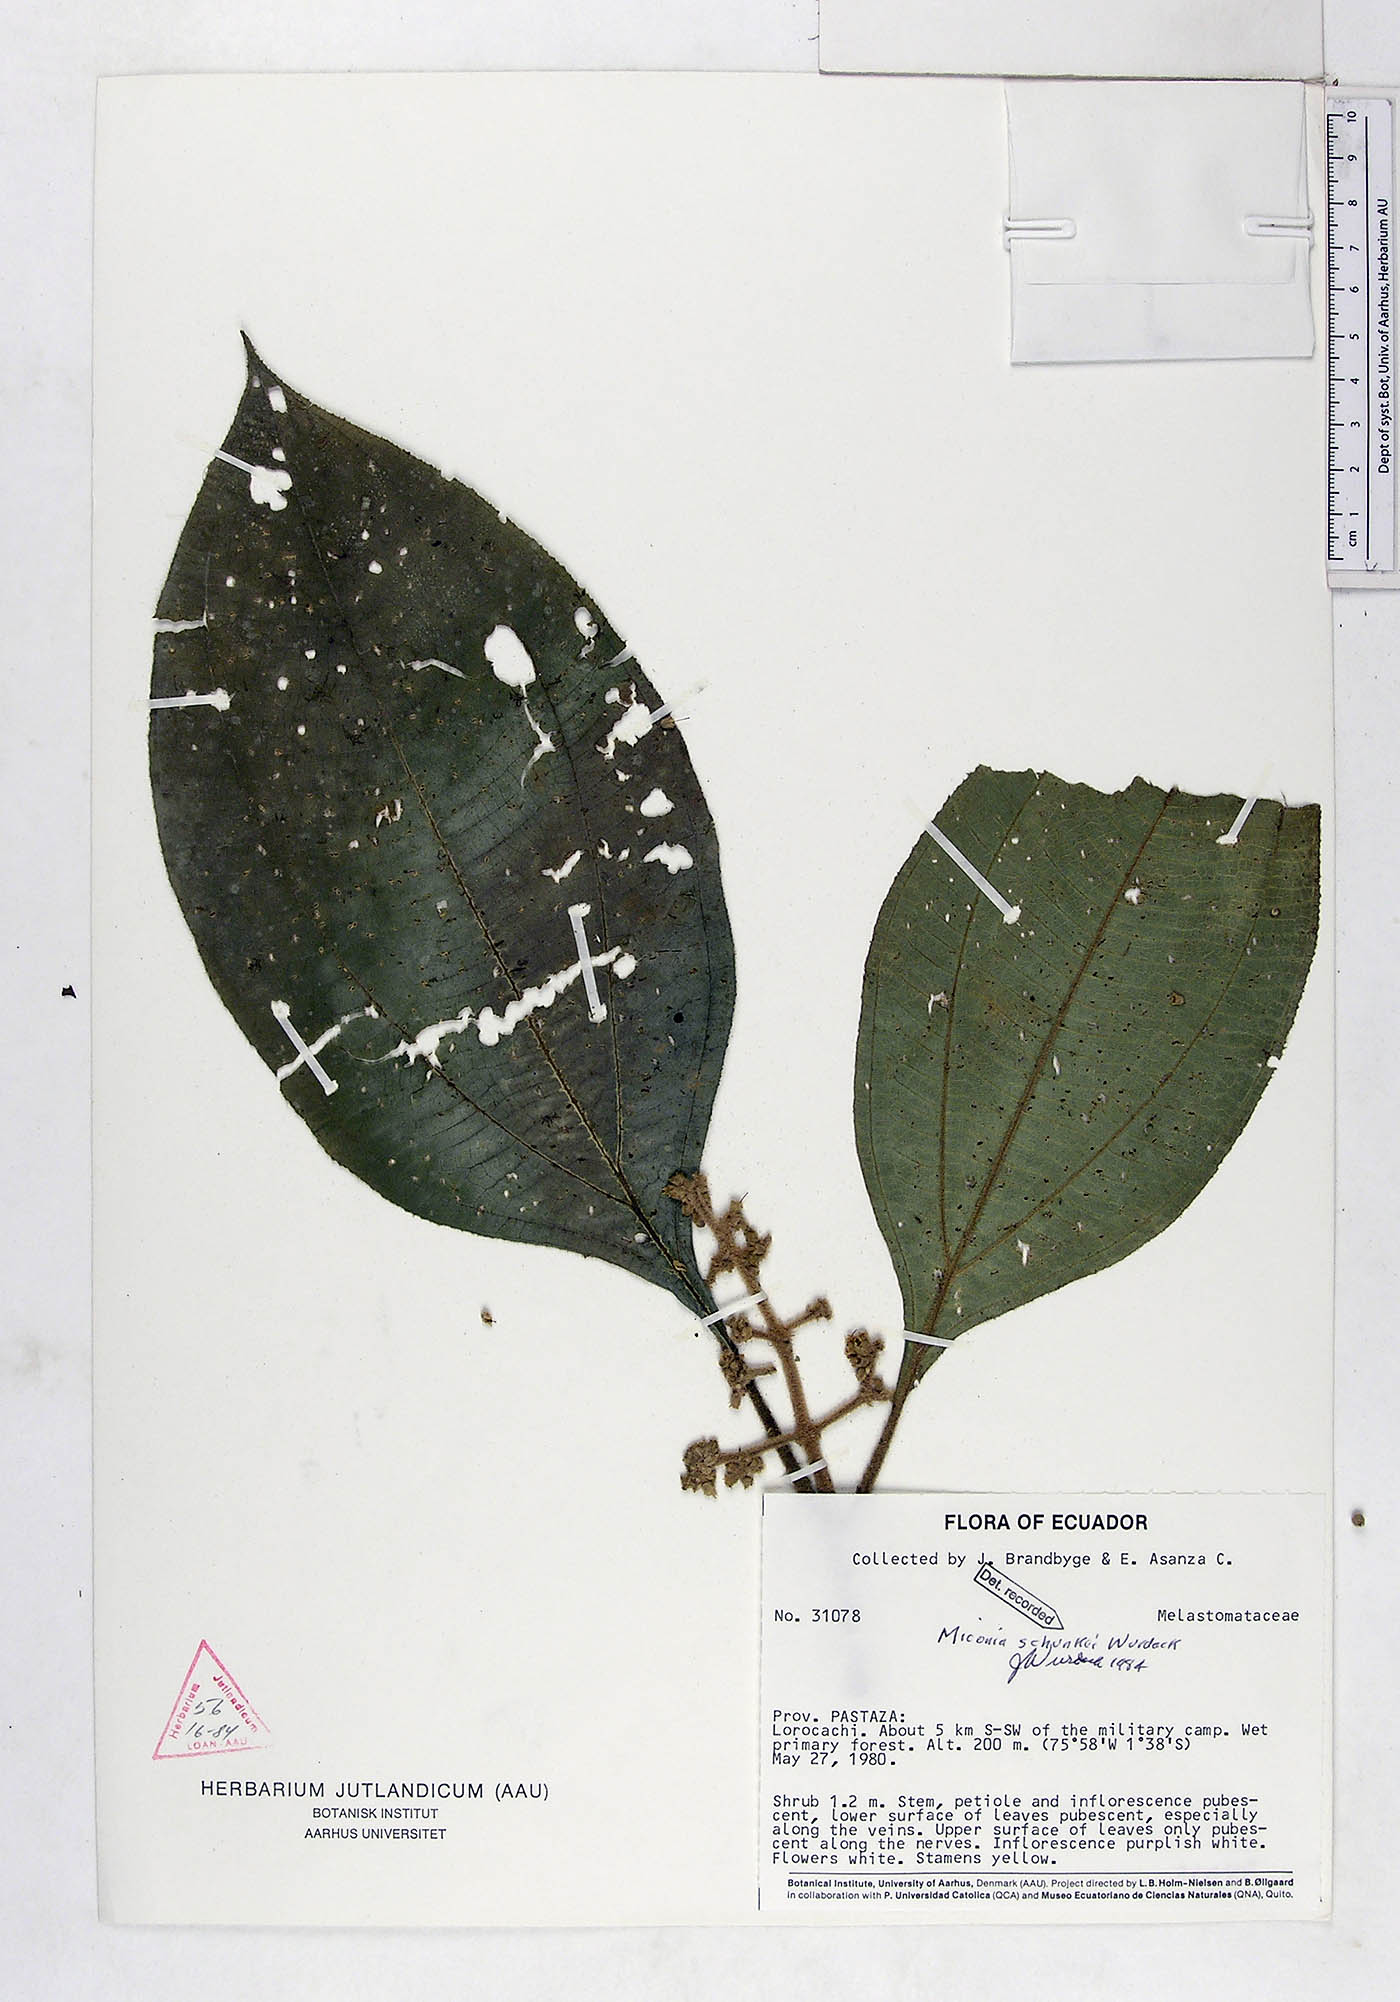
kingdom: Plantae
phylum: Tracheophyta
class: Magnoliopsida
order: Myrtales
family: Melastomataceae
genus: Miconia
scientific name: Miconia schunkei
